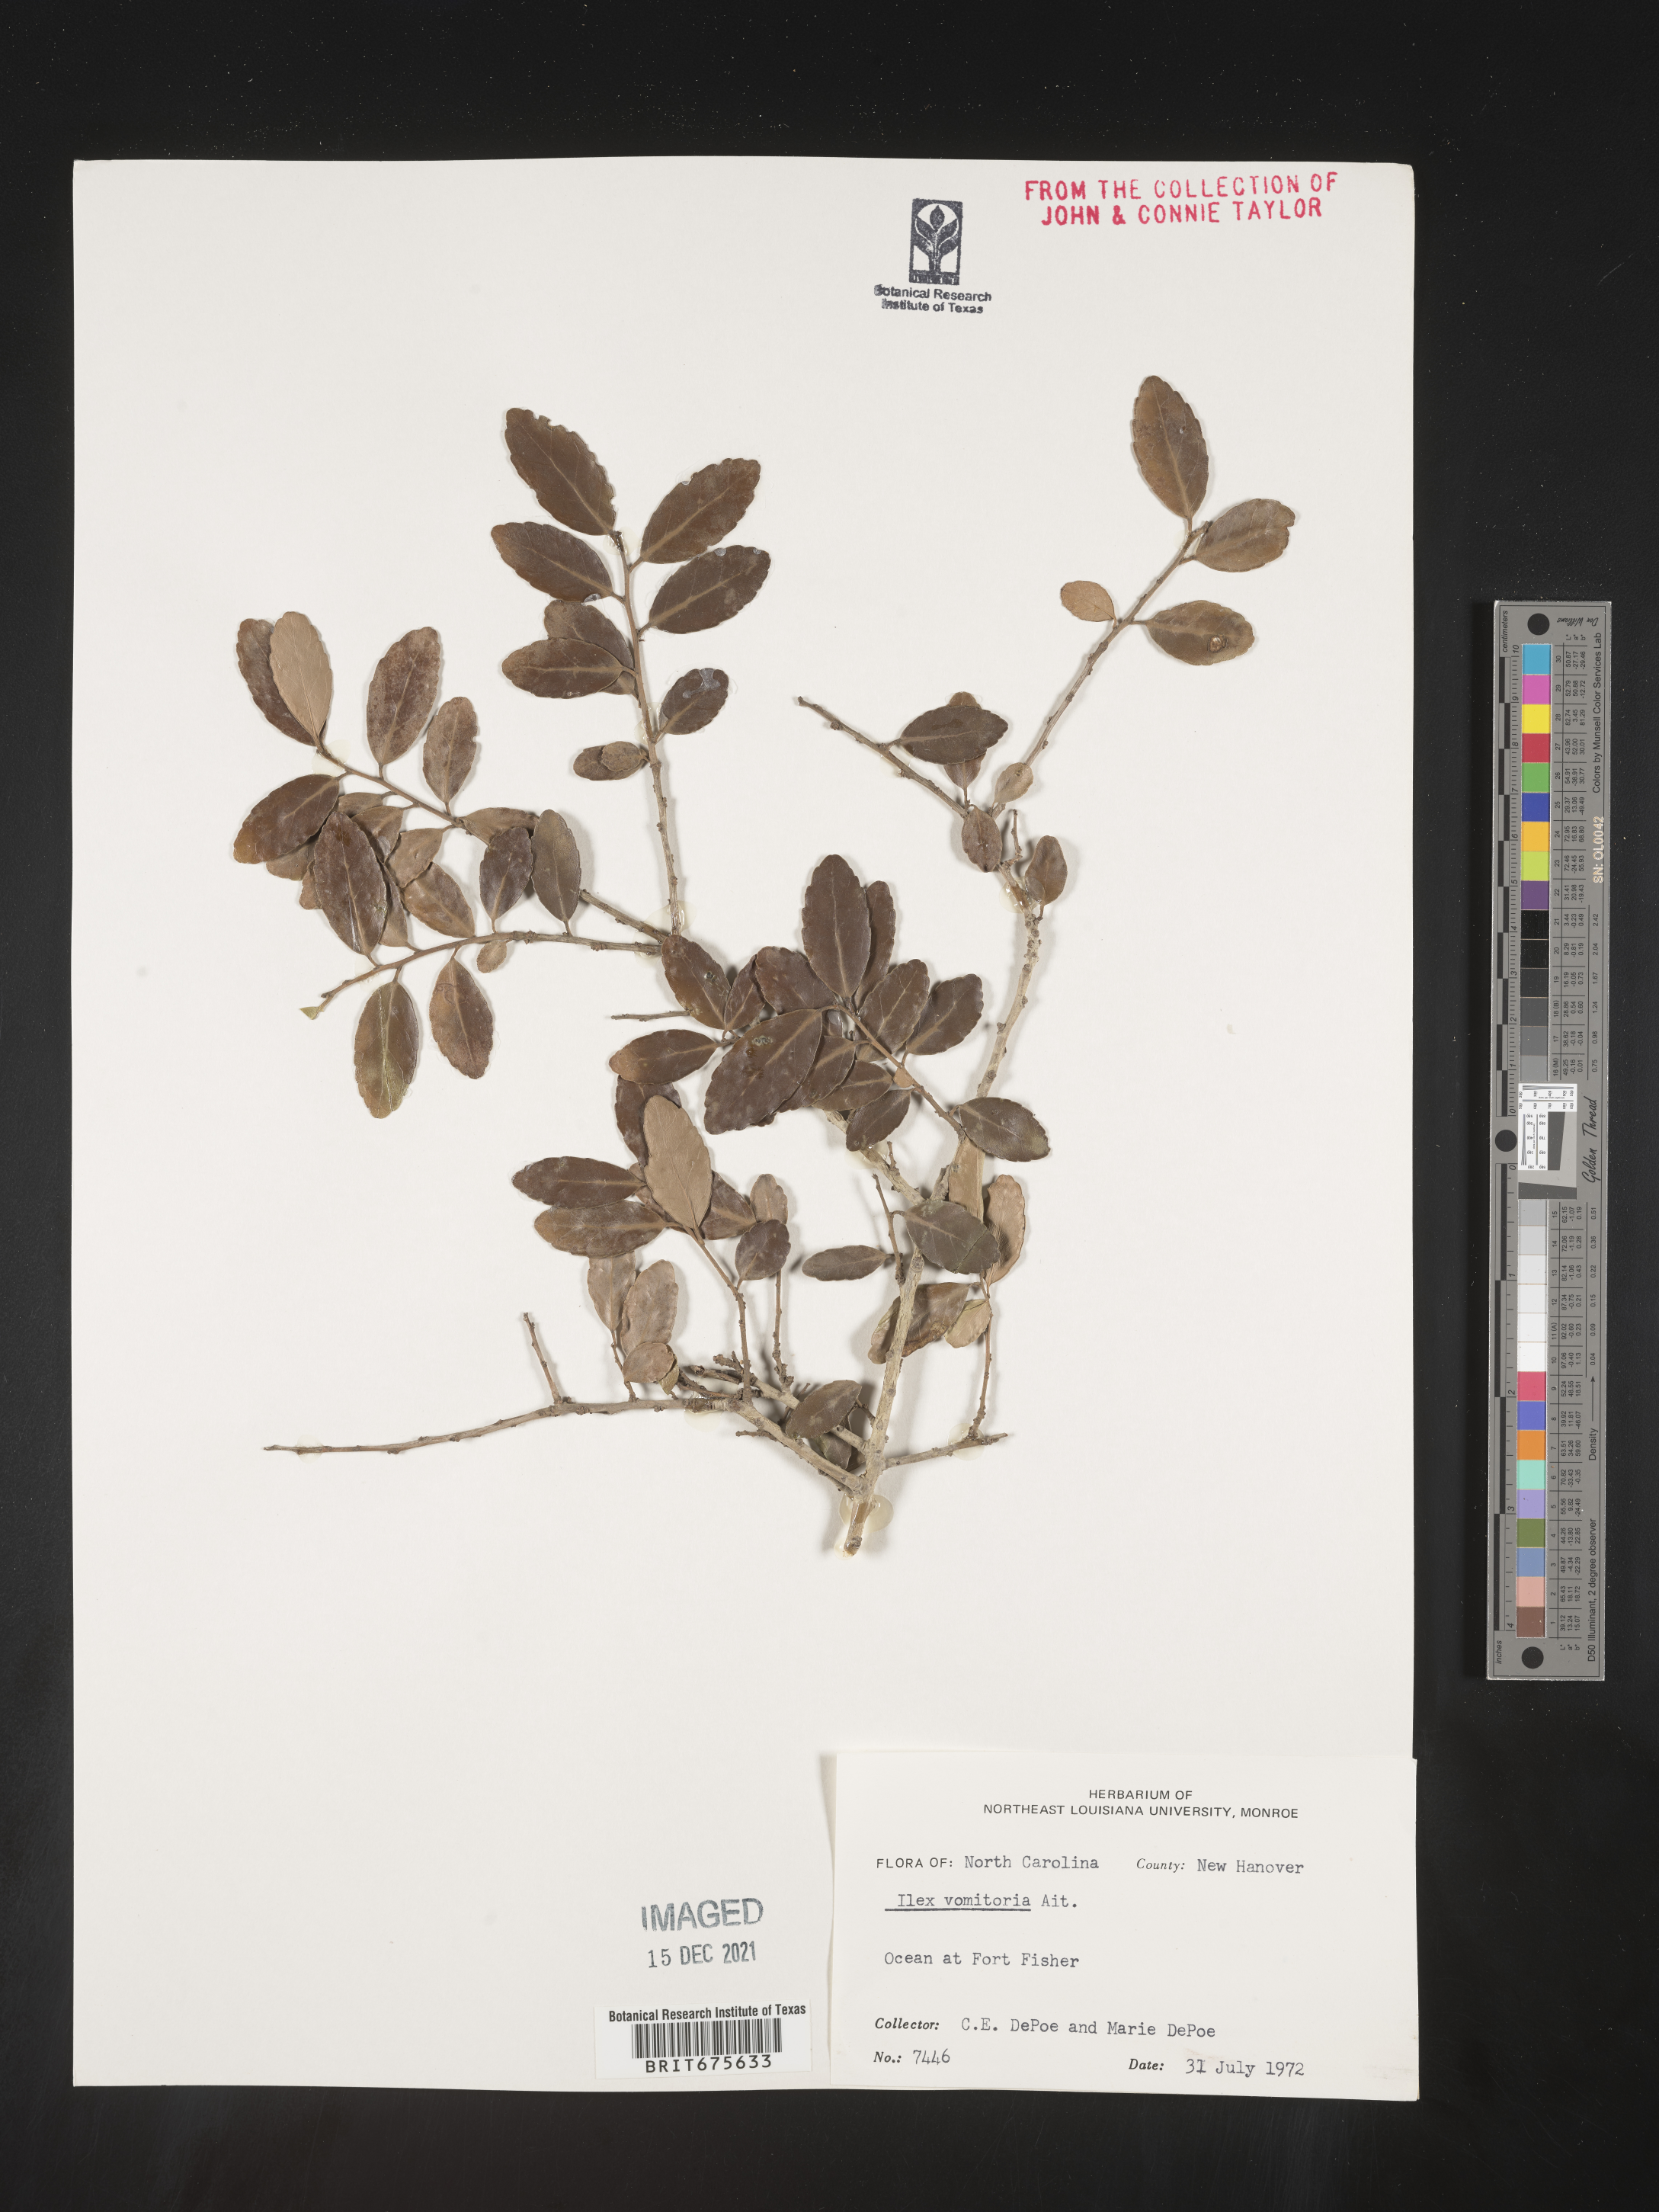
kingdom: Plantae
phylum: Tracheophyta
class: Magnoliopsida
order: Aquifoliales
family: Aquifoliaceae
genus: Ilex
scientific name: Ilex vomitoria
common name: Yaupon holly
